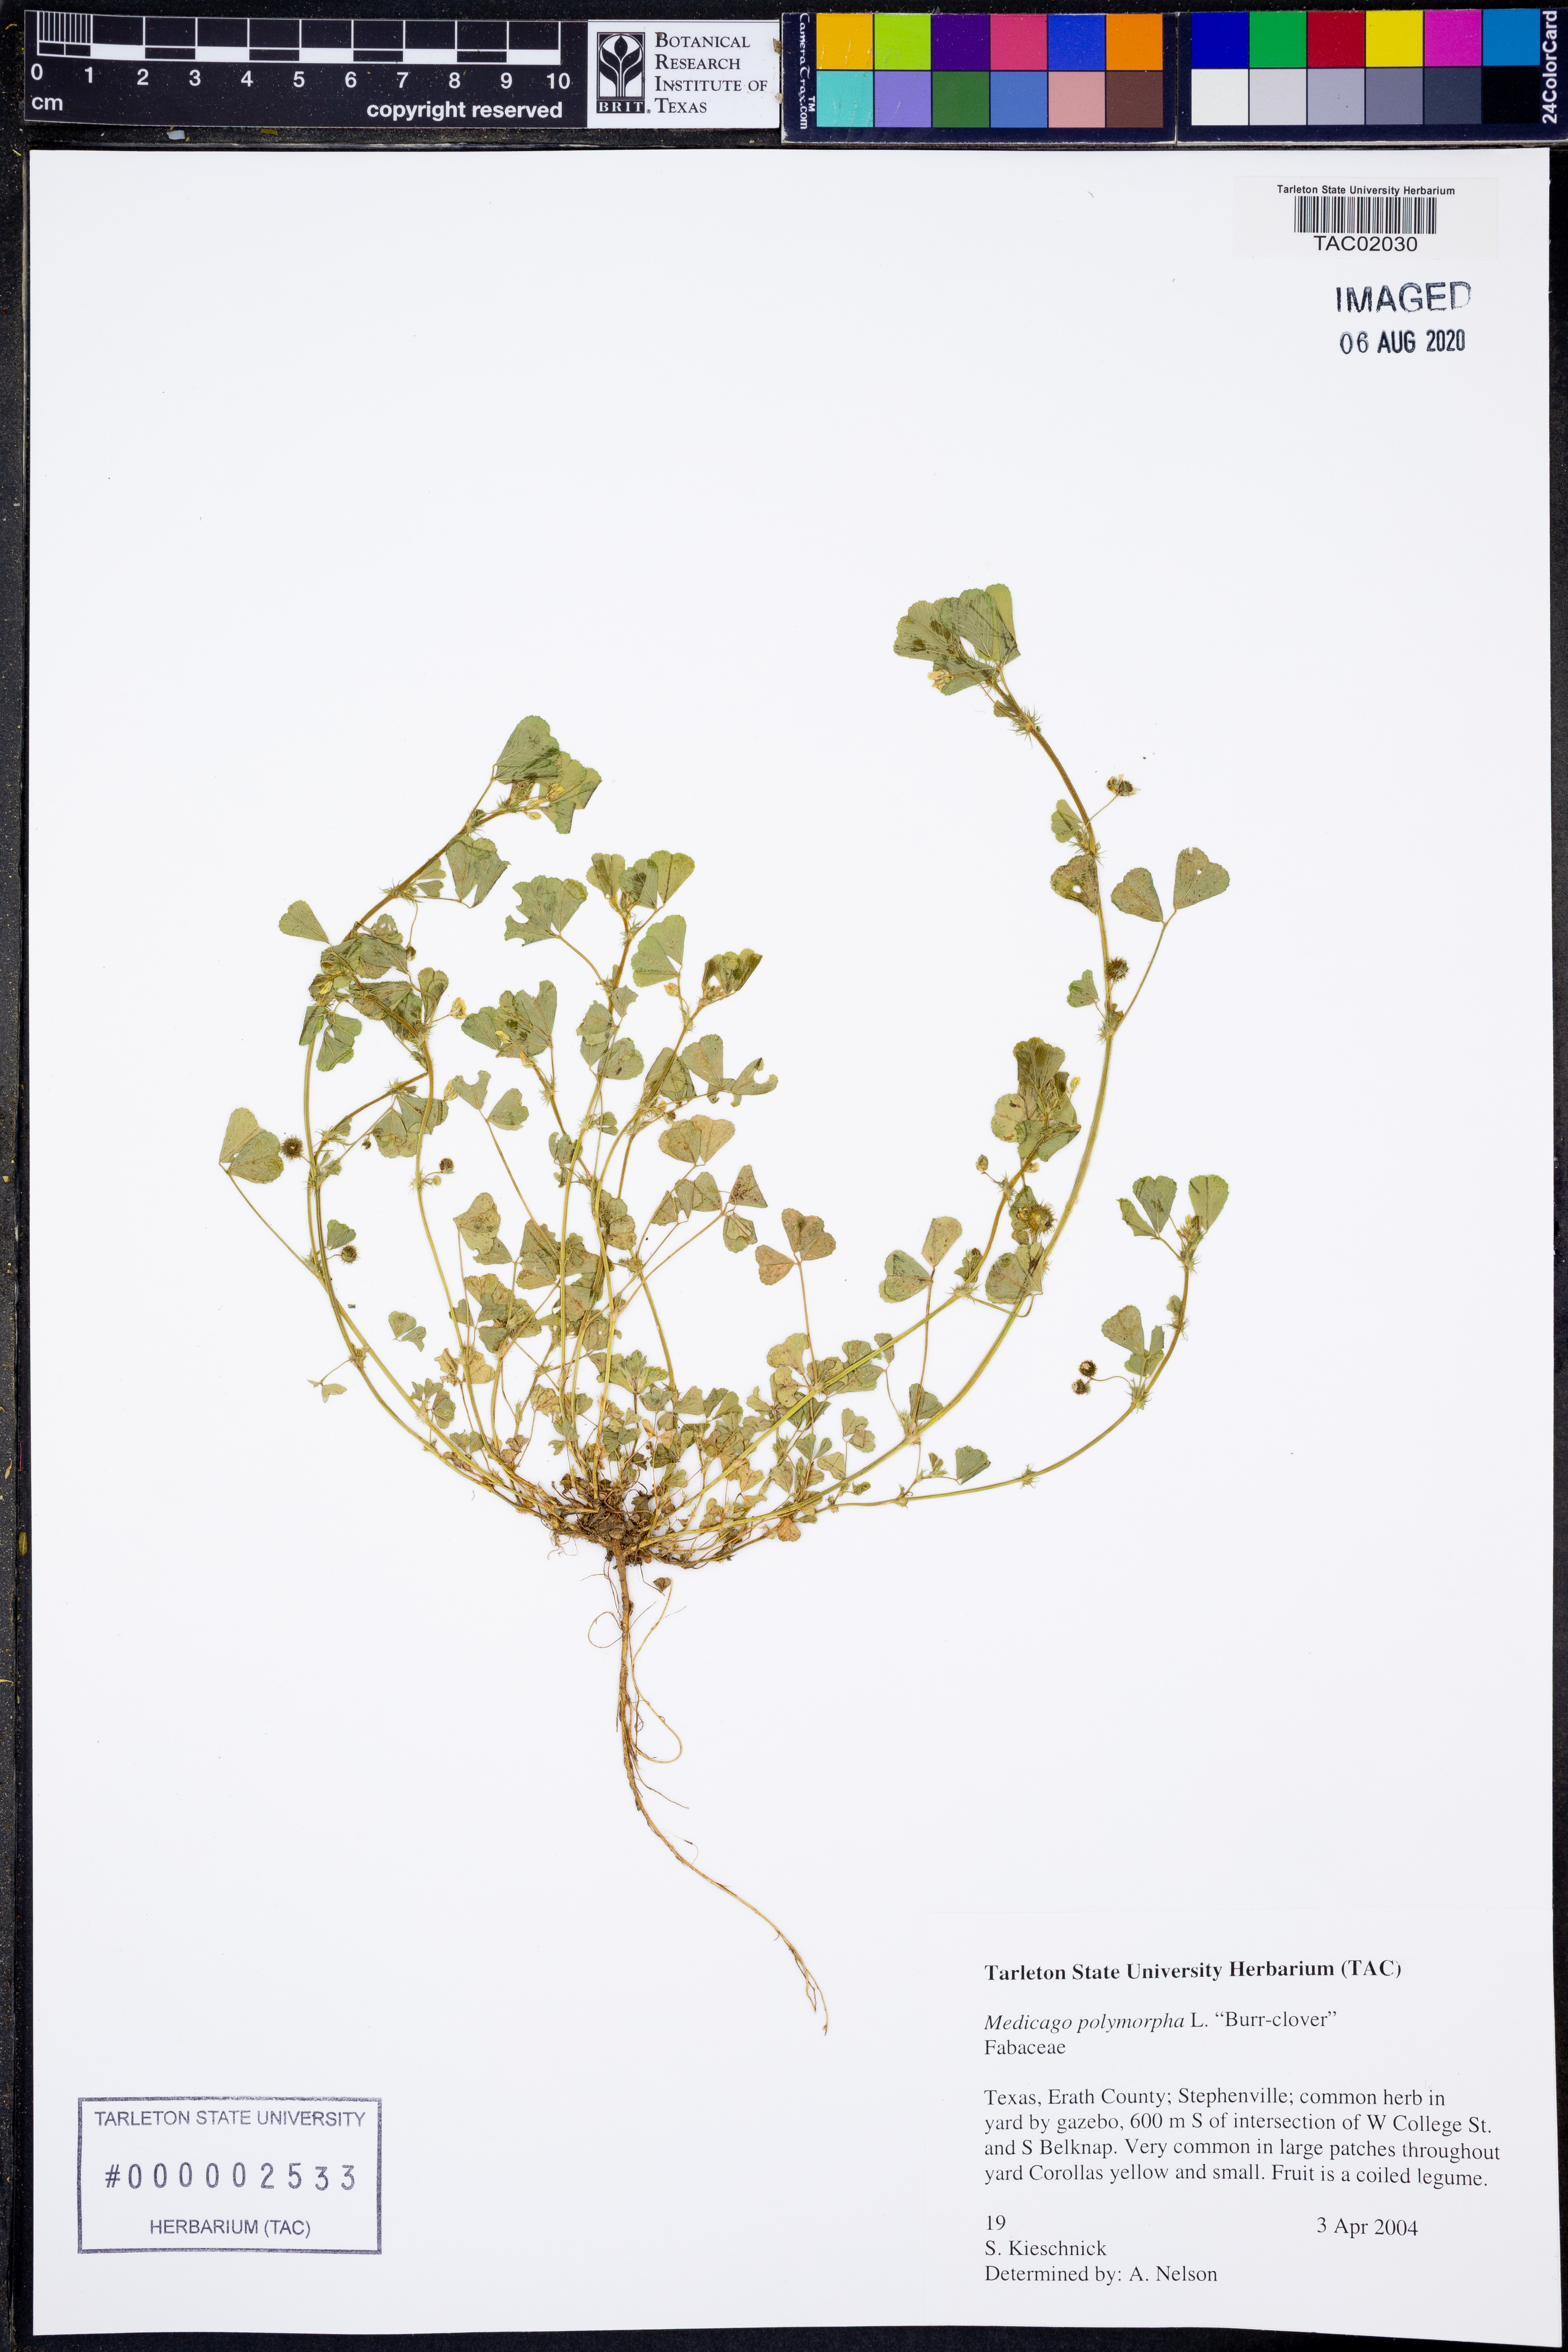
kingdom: Plantae
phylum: Tracheophyta
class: Magnoliopsida
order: Fabales
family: Fabaceae
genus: Medicago
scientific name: Medicago polymorpha
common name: Burclover
